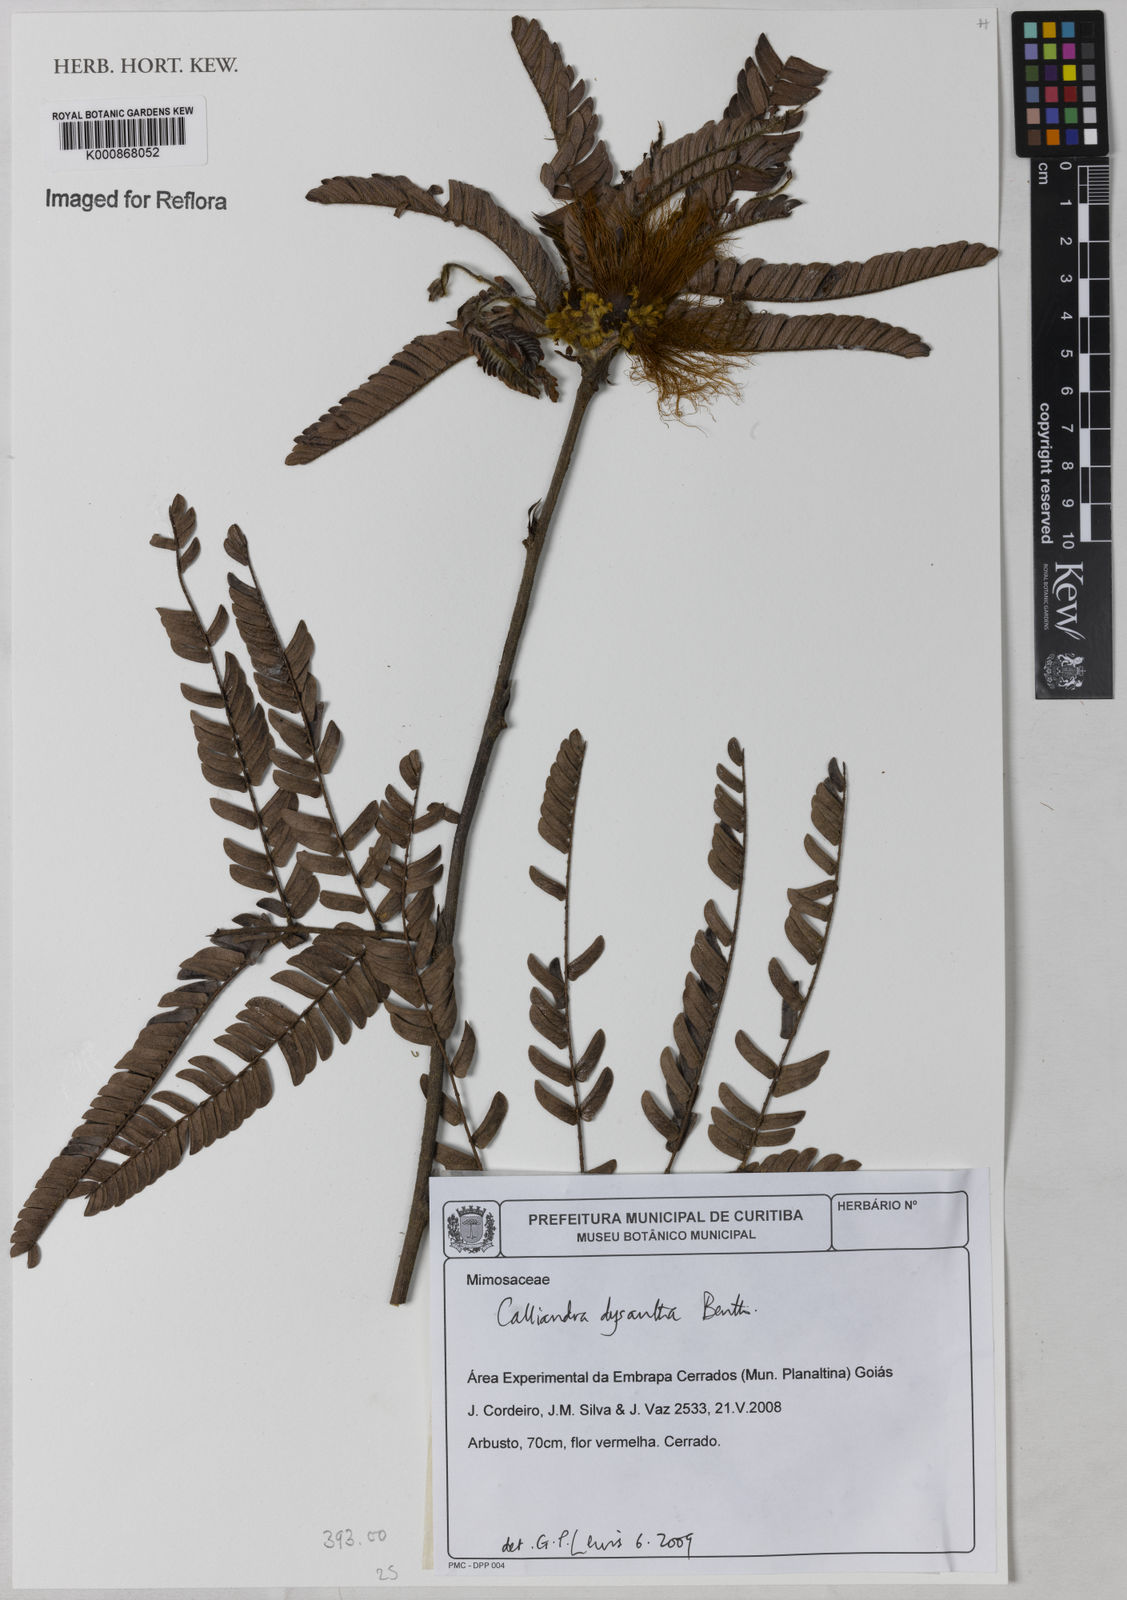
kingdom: Plantae
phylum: Tracheophyta
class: Magnoliopsida
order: Fabales
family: Fabaceae
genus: Calliandra
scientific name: Calliandra dysantha
